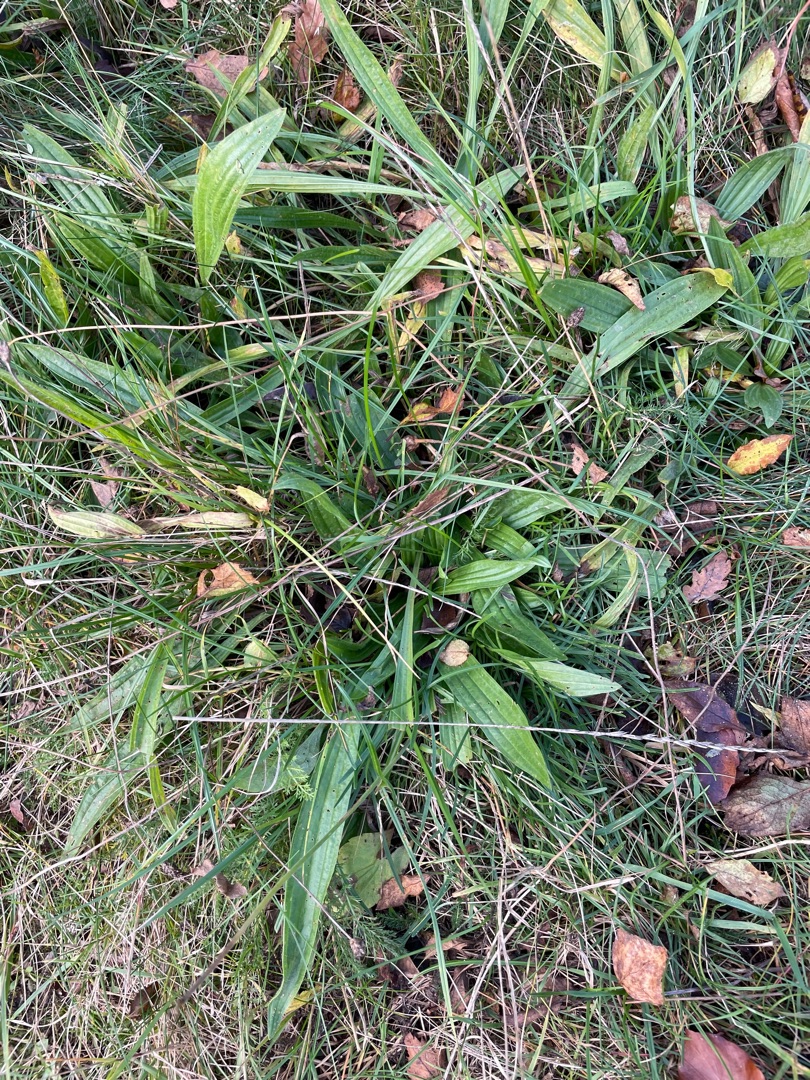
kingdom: Plantae
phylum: Tracheophyta
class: Magnoliopsida
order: Lamiales
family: Plantaginaceae
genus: Plantago
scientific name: Plantago lanceolata
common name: Lancet-vejbred
